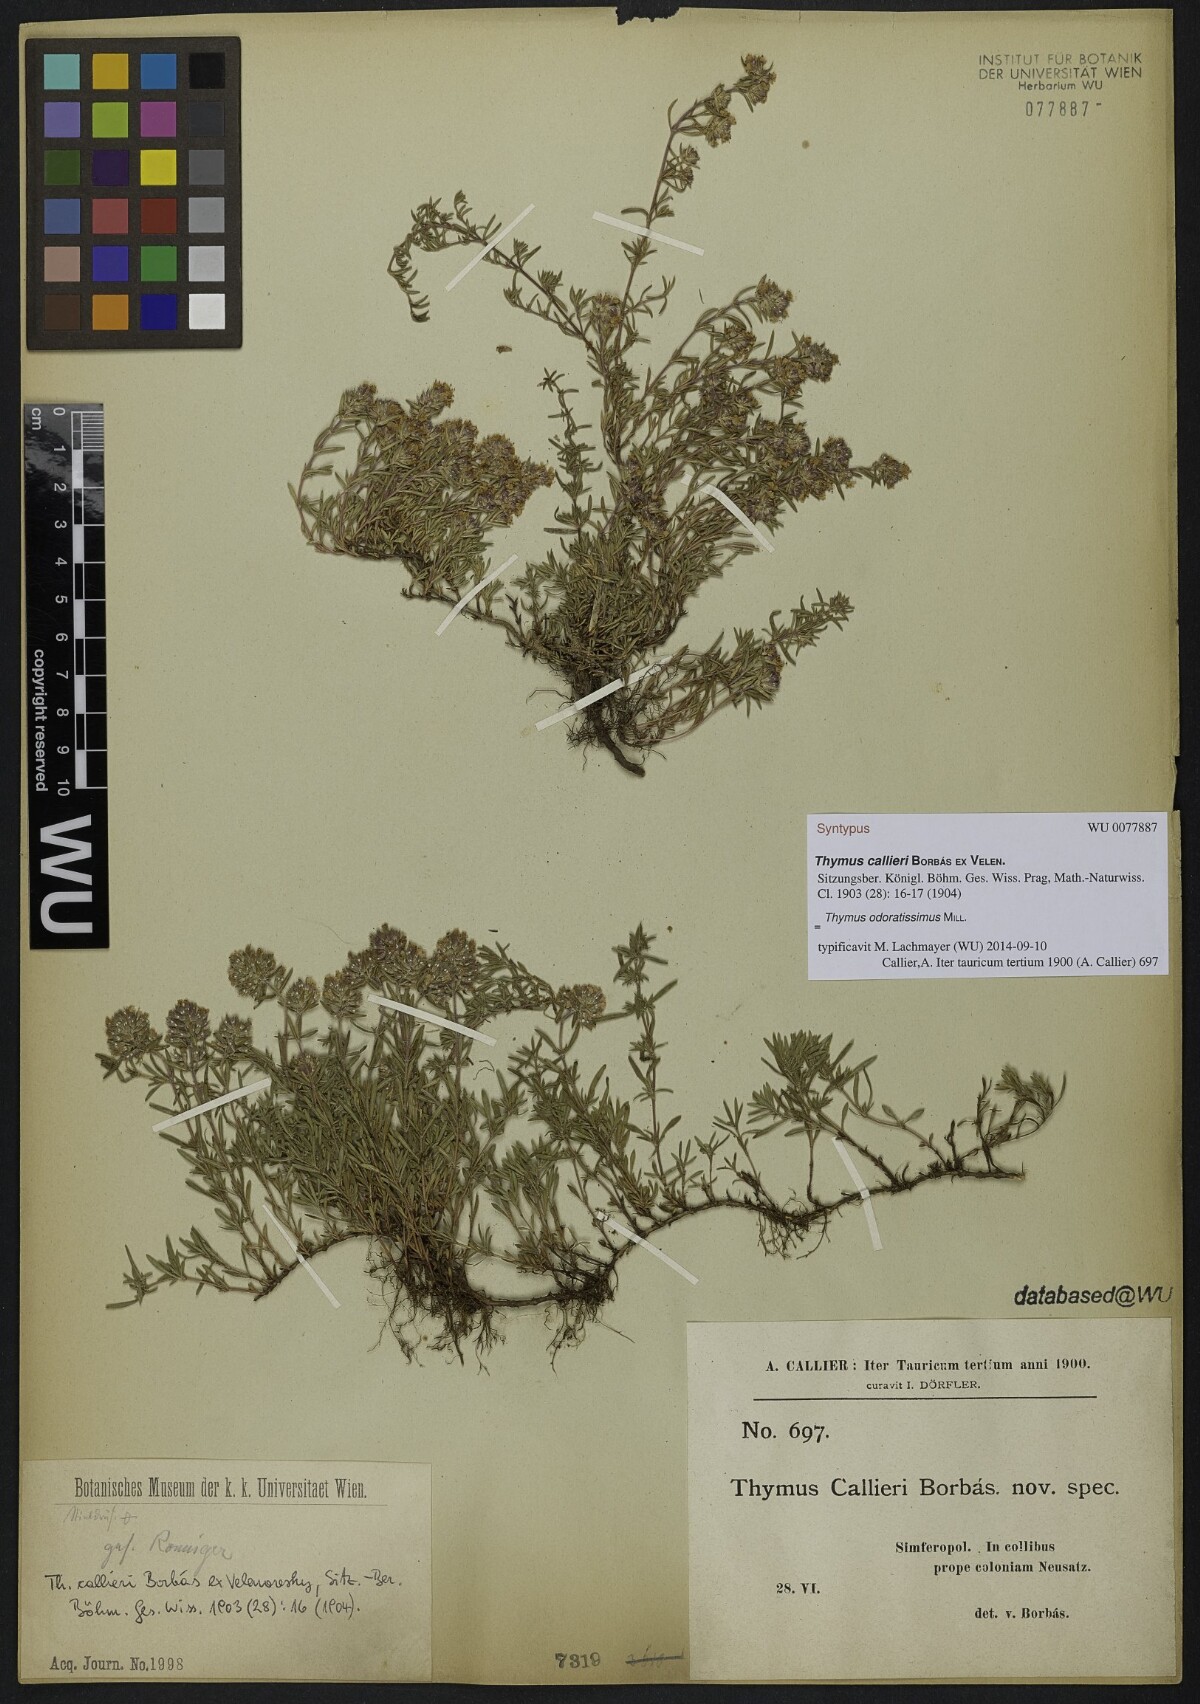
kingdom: Plantae
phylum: Tracheophyta
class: Magnoliopsida
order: Lamiales
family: Lamiaceae
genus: Thymus
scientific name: Thymus callieri
